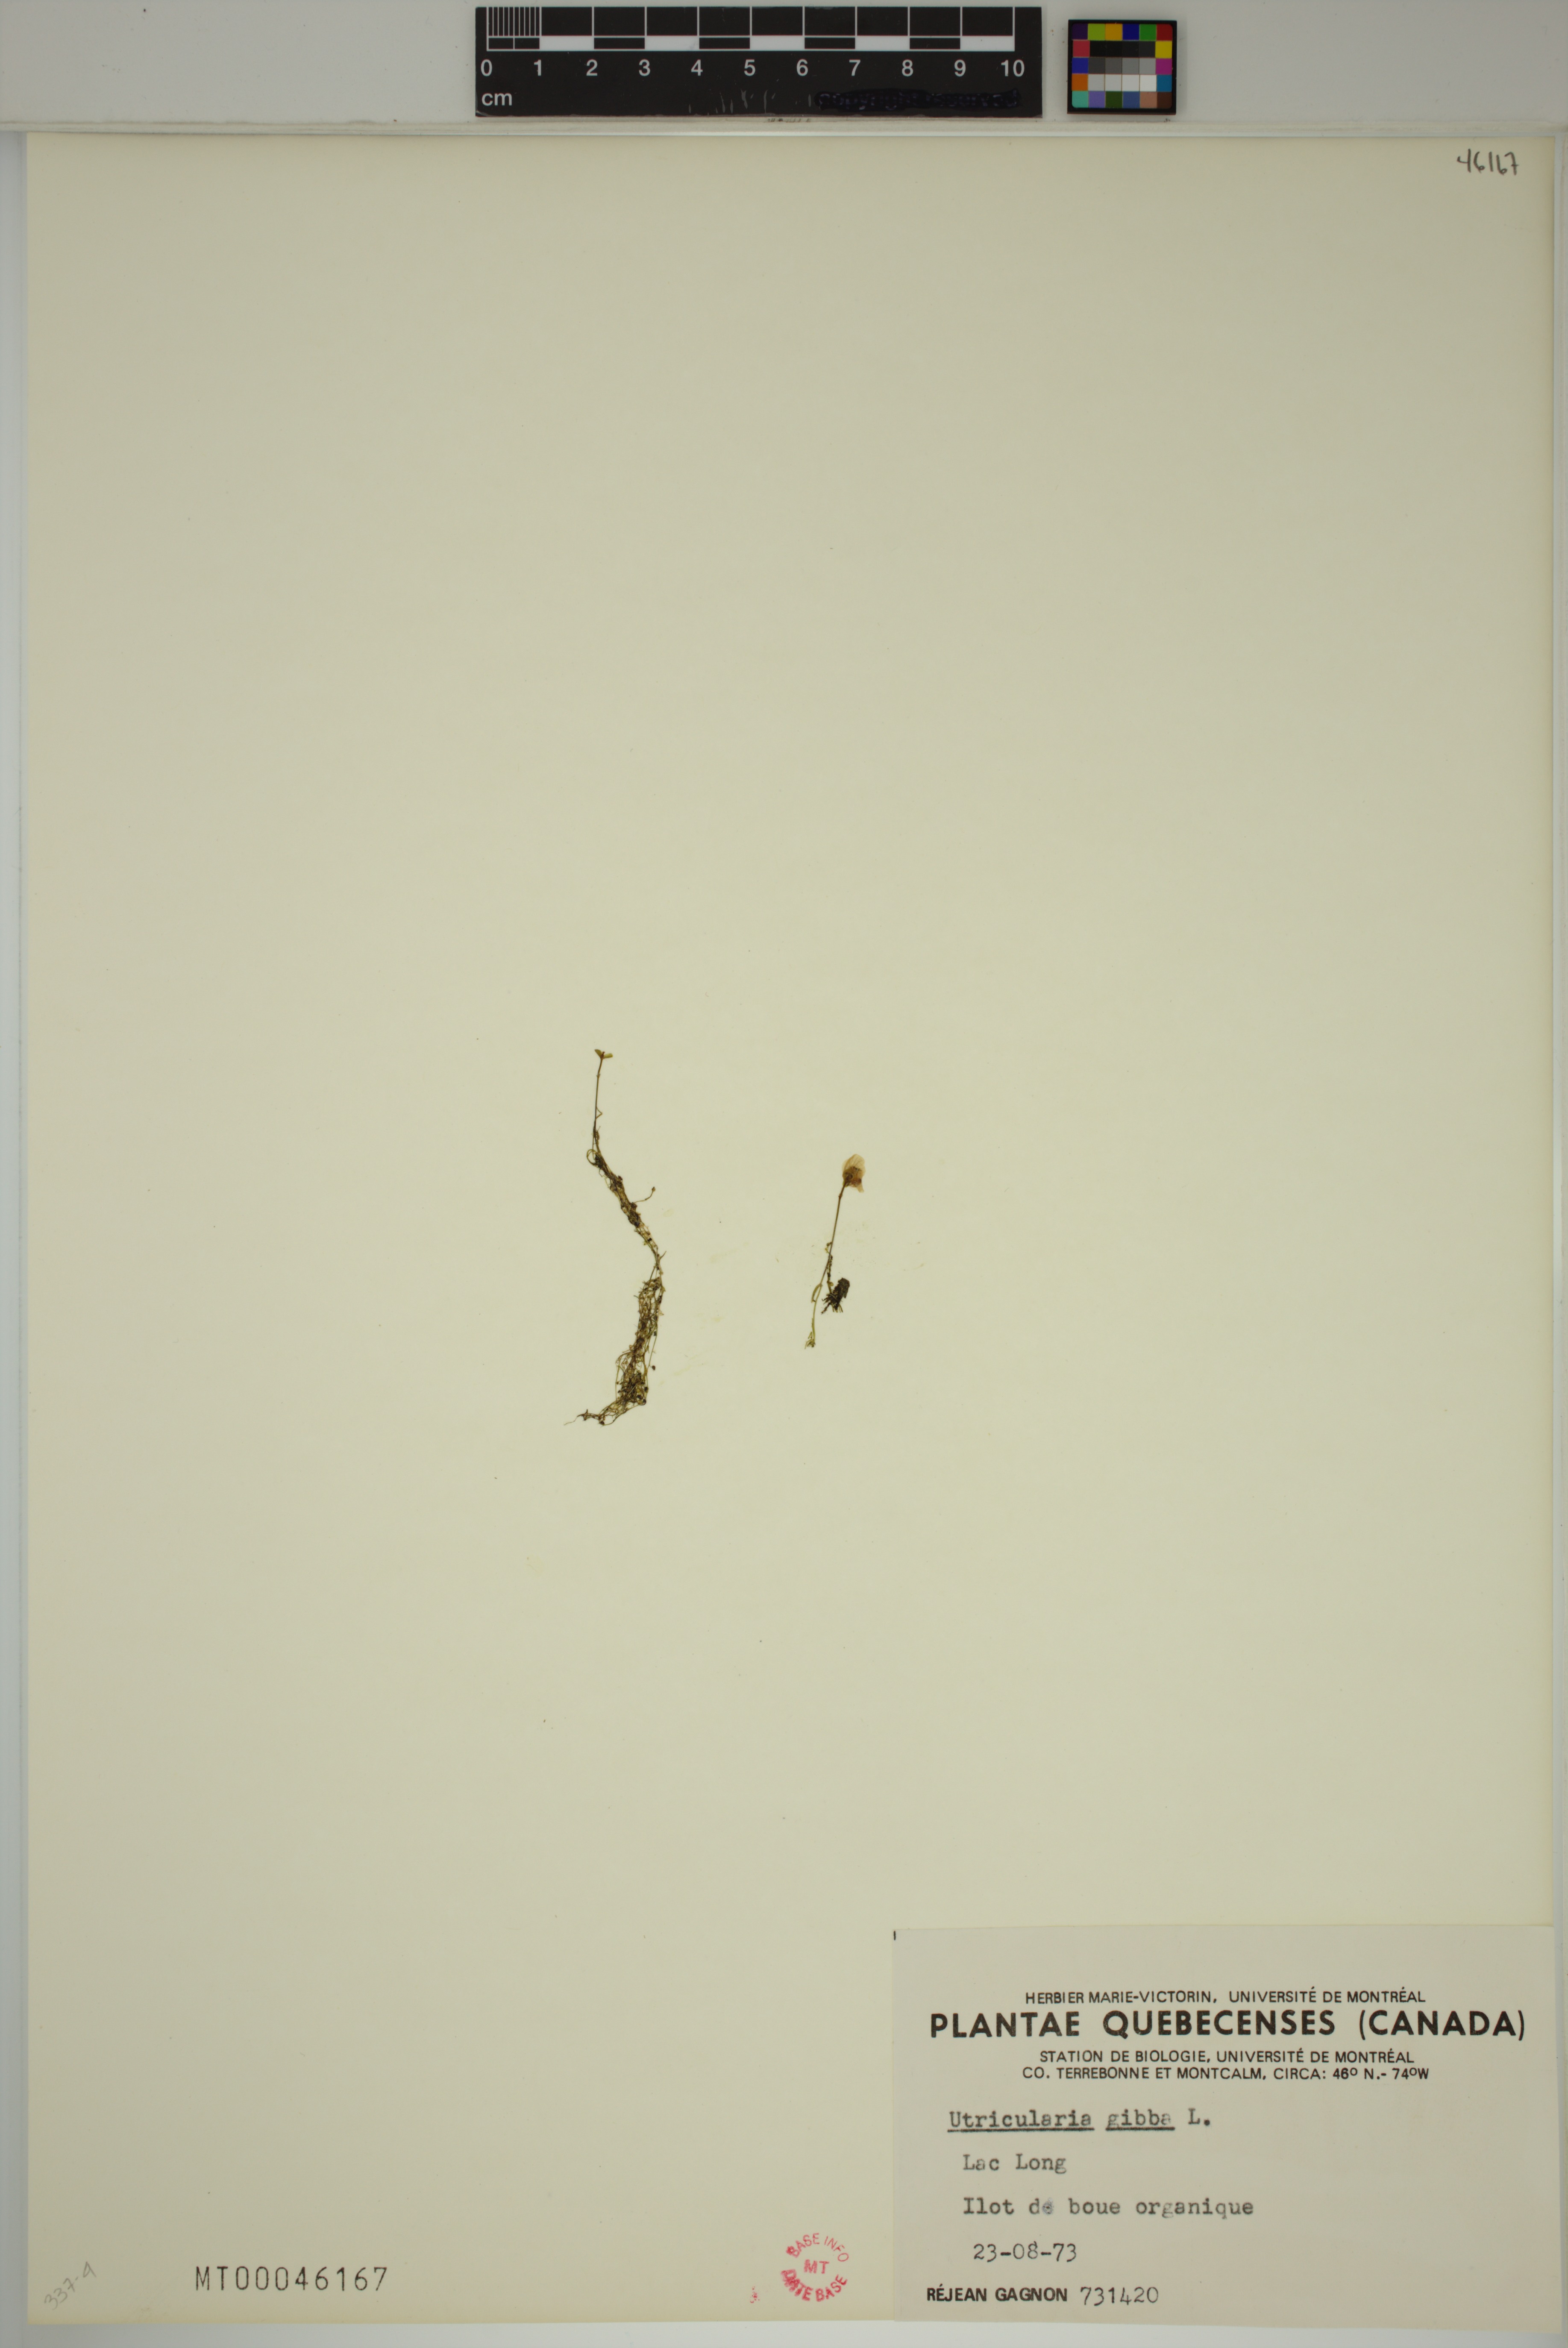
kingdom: Plantae
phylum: Tracheophyta
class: Magnoliopsida
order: Lamiales
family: Lentibulariaceae
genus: Utricularia
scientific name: Utricularia gibba
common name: Humped bladderwort
